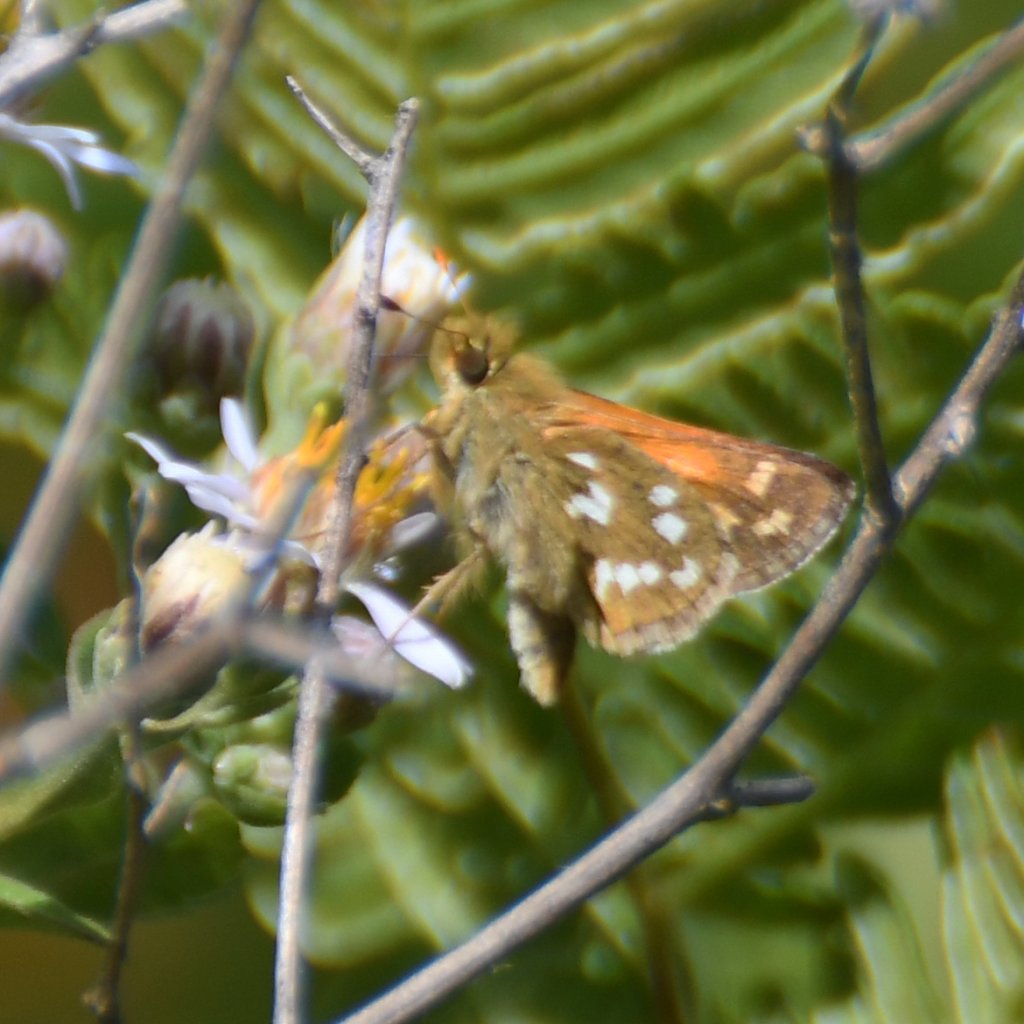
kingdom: Animalia
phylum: Arthropoda
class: Insecta
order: Lepidoptera
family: Hesperiidae
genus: Hesperia
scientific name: Hesperia comma
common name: Common Branded Skipper
